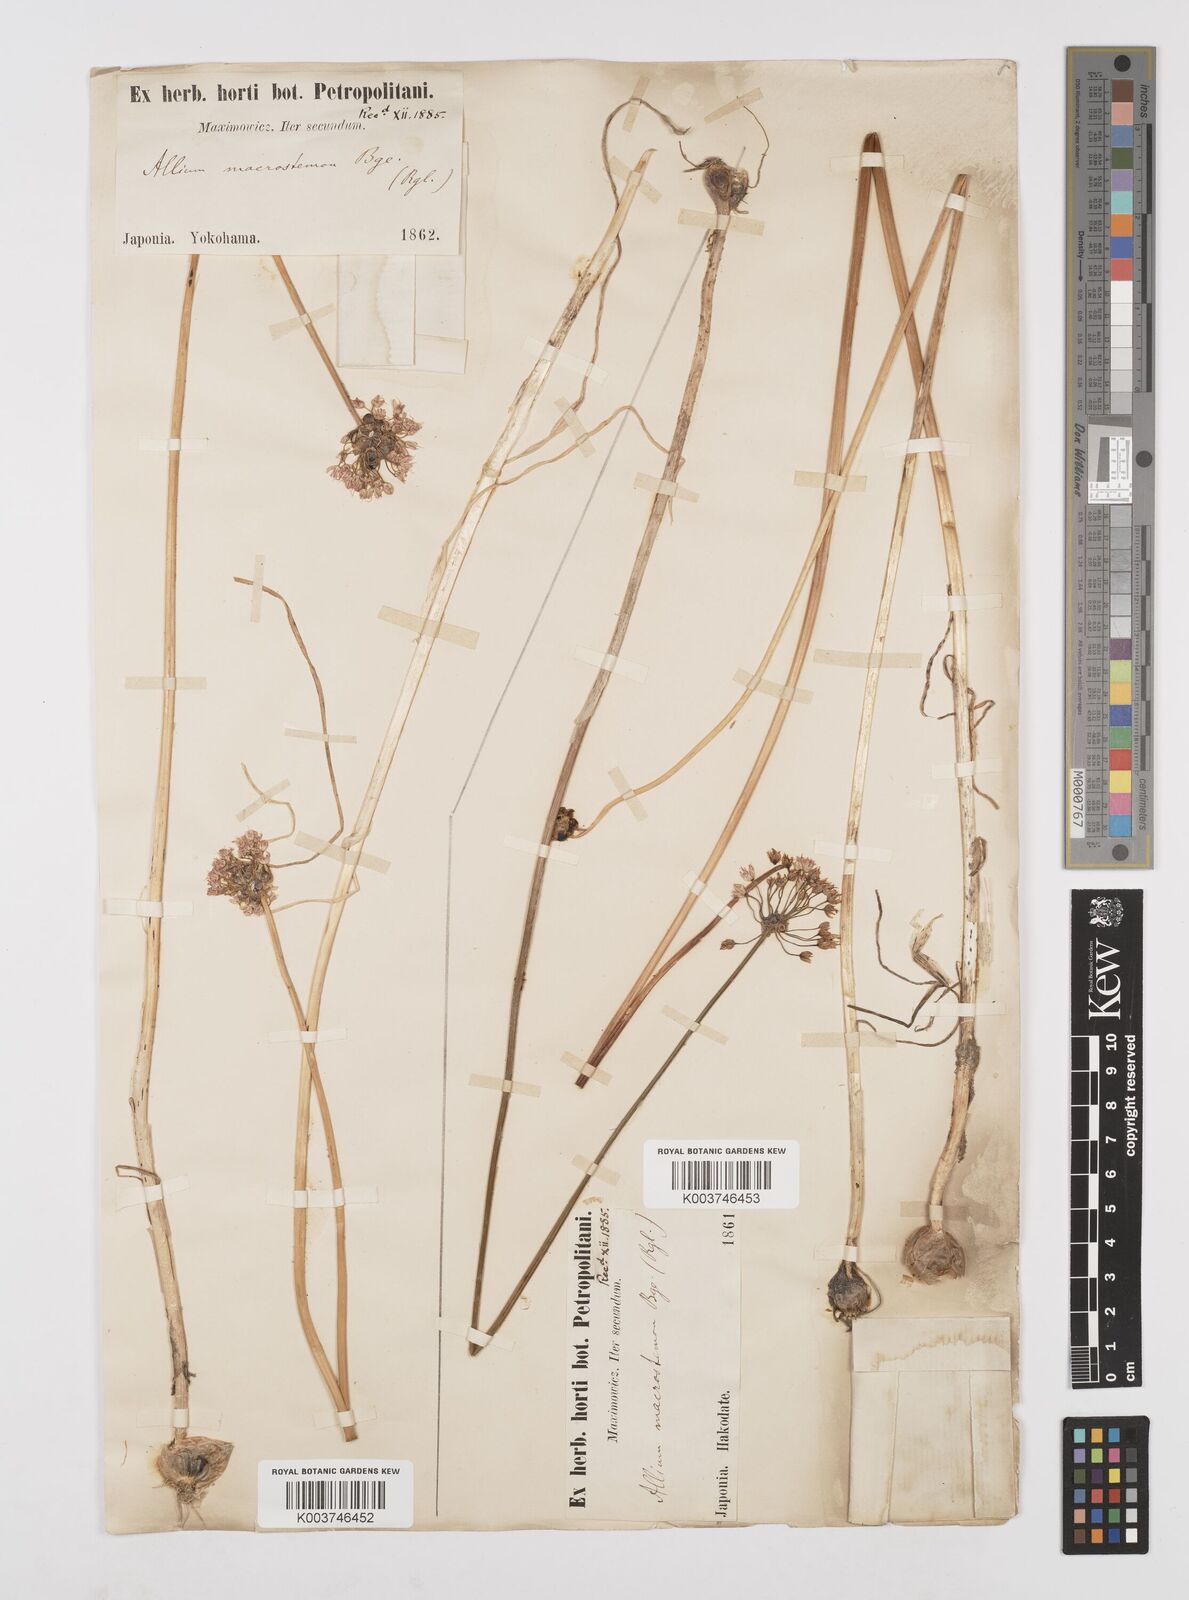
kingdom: Plantae
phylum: Tracheophyta
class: Liliopsida
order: Asparagales
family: Amaryllidaceae
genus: Allium
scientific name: Allium macrostemon
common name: Chinese garlic
